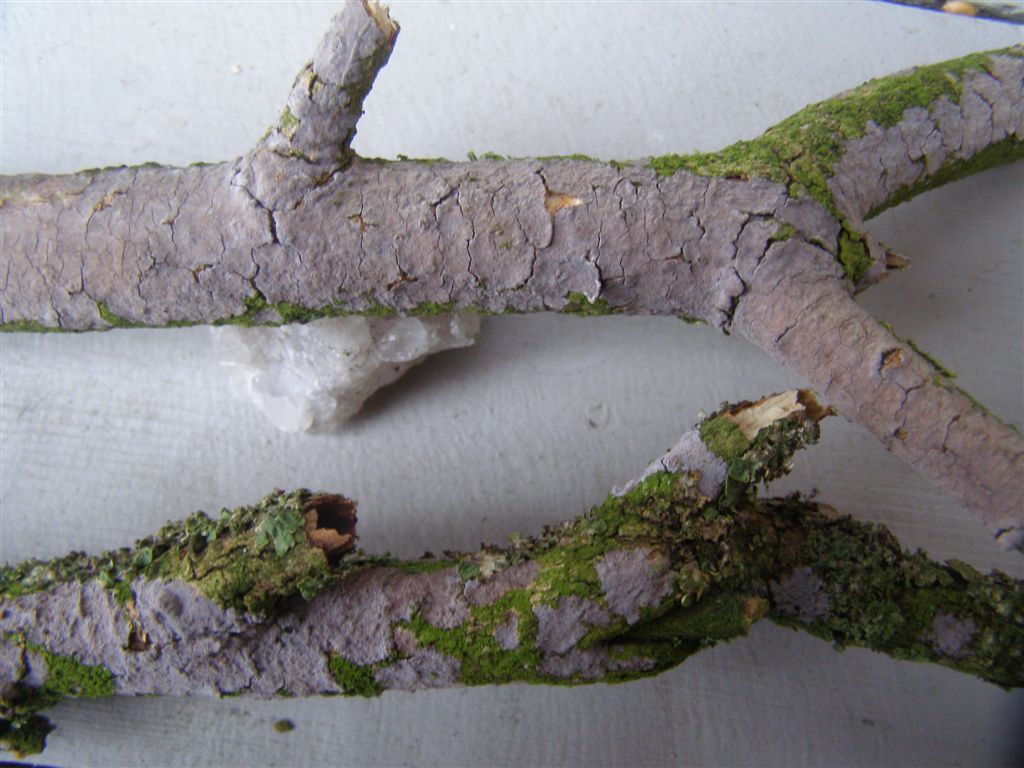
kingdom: Fungi
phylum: Basidiomycota
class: Agaricomycetes
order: Russulales
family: Peniophoraceae
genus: Peniophora
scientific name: Peniophora lycii
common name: grynet voksskind
